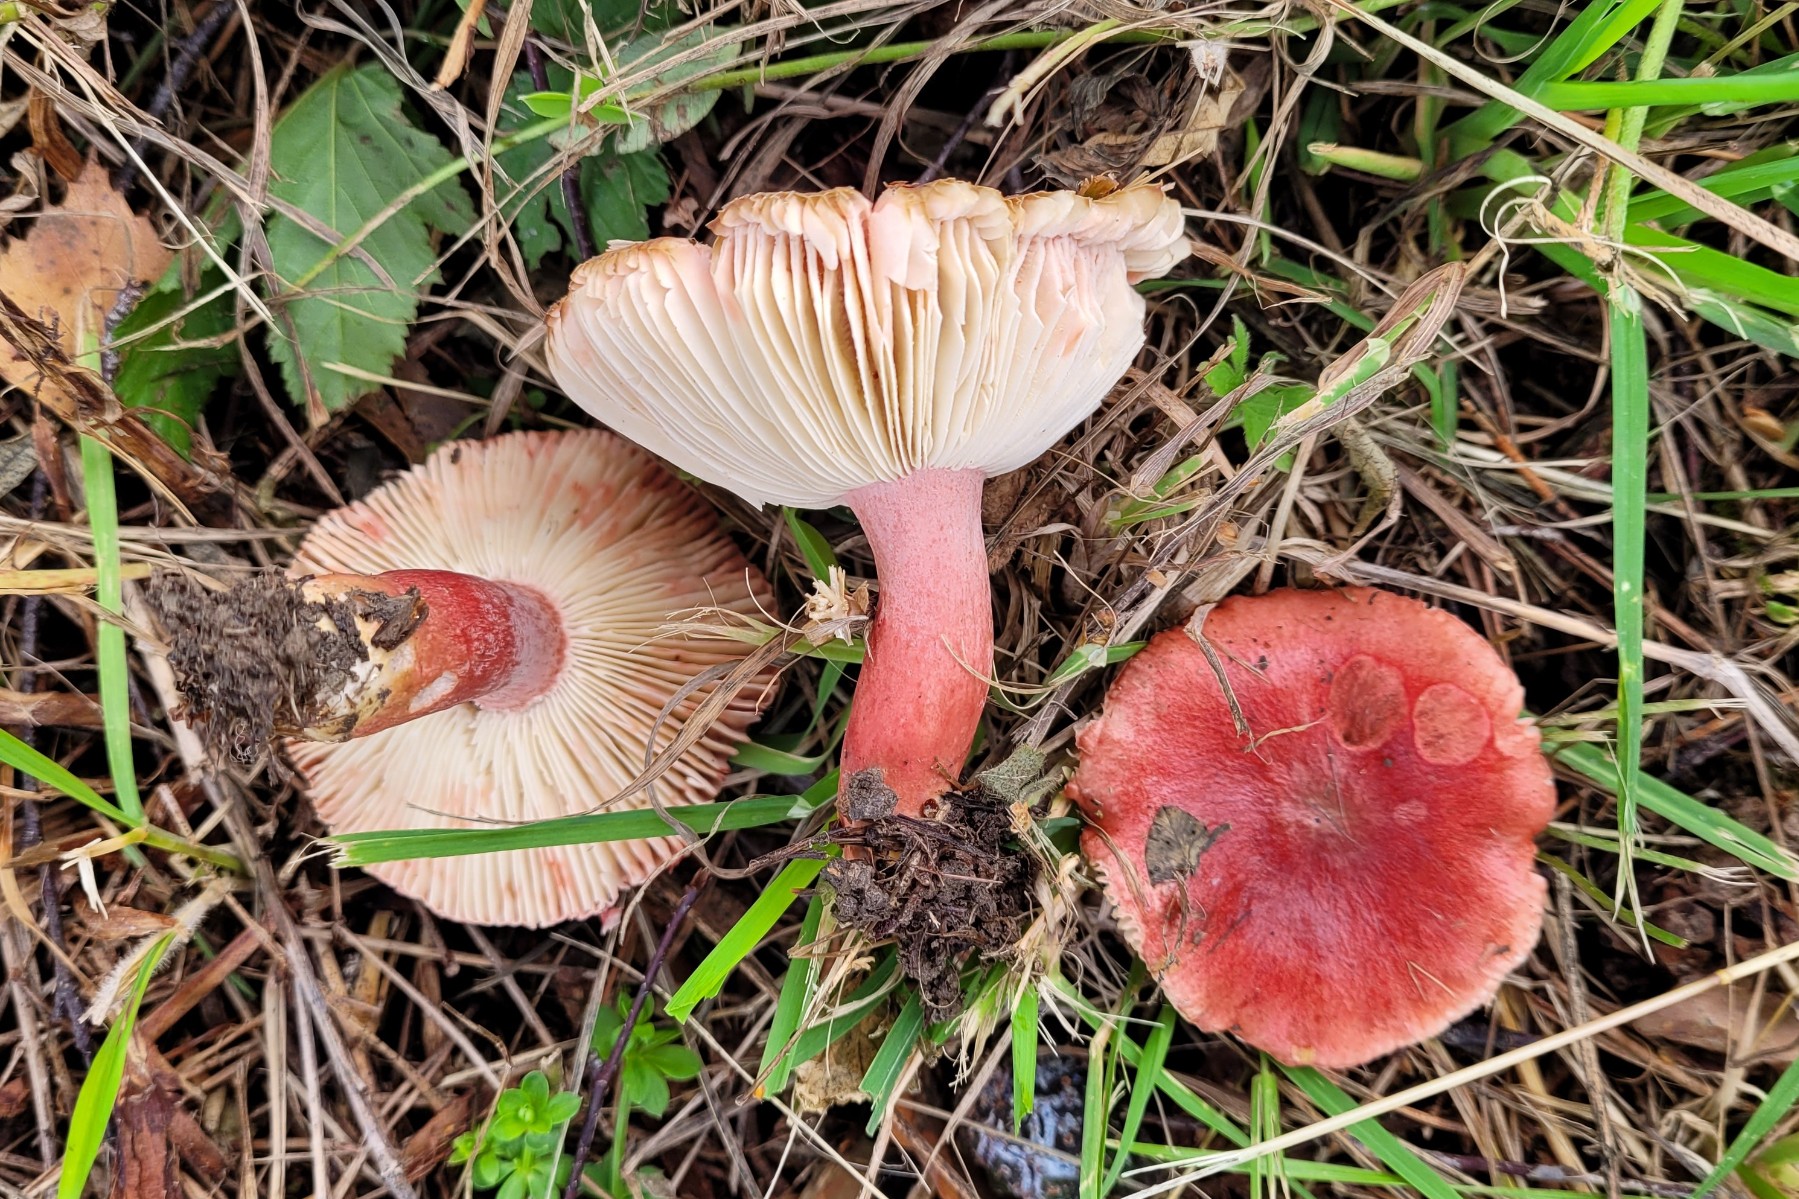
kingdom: Fungi
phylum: Basidiomycota
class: Agaricomycetes
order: Russulales
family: Russulaceae
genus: Russula
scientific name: Russula sanguinea
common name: blodrød skørhat
